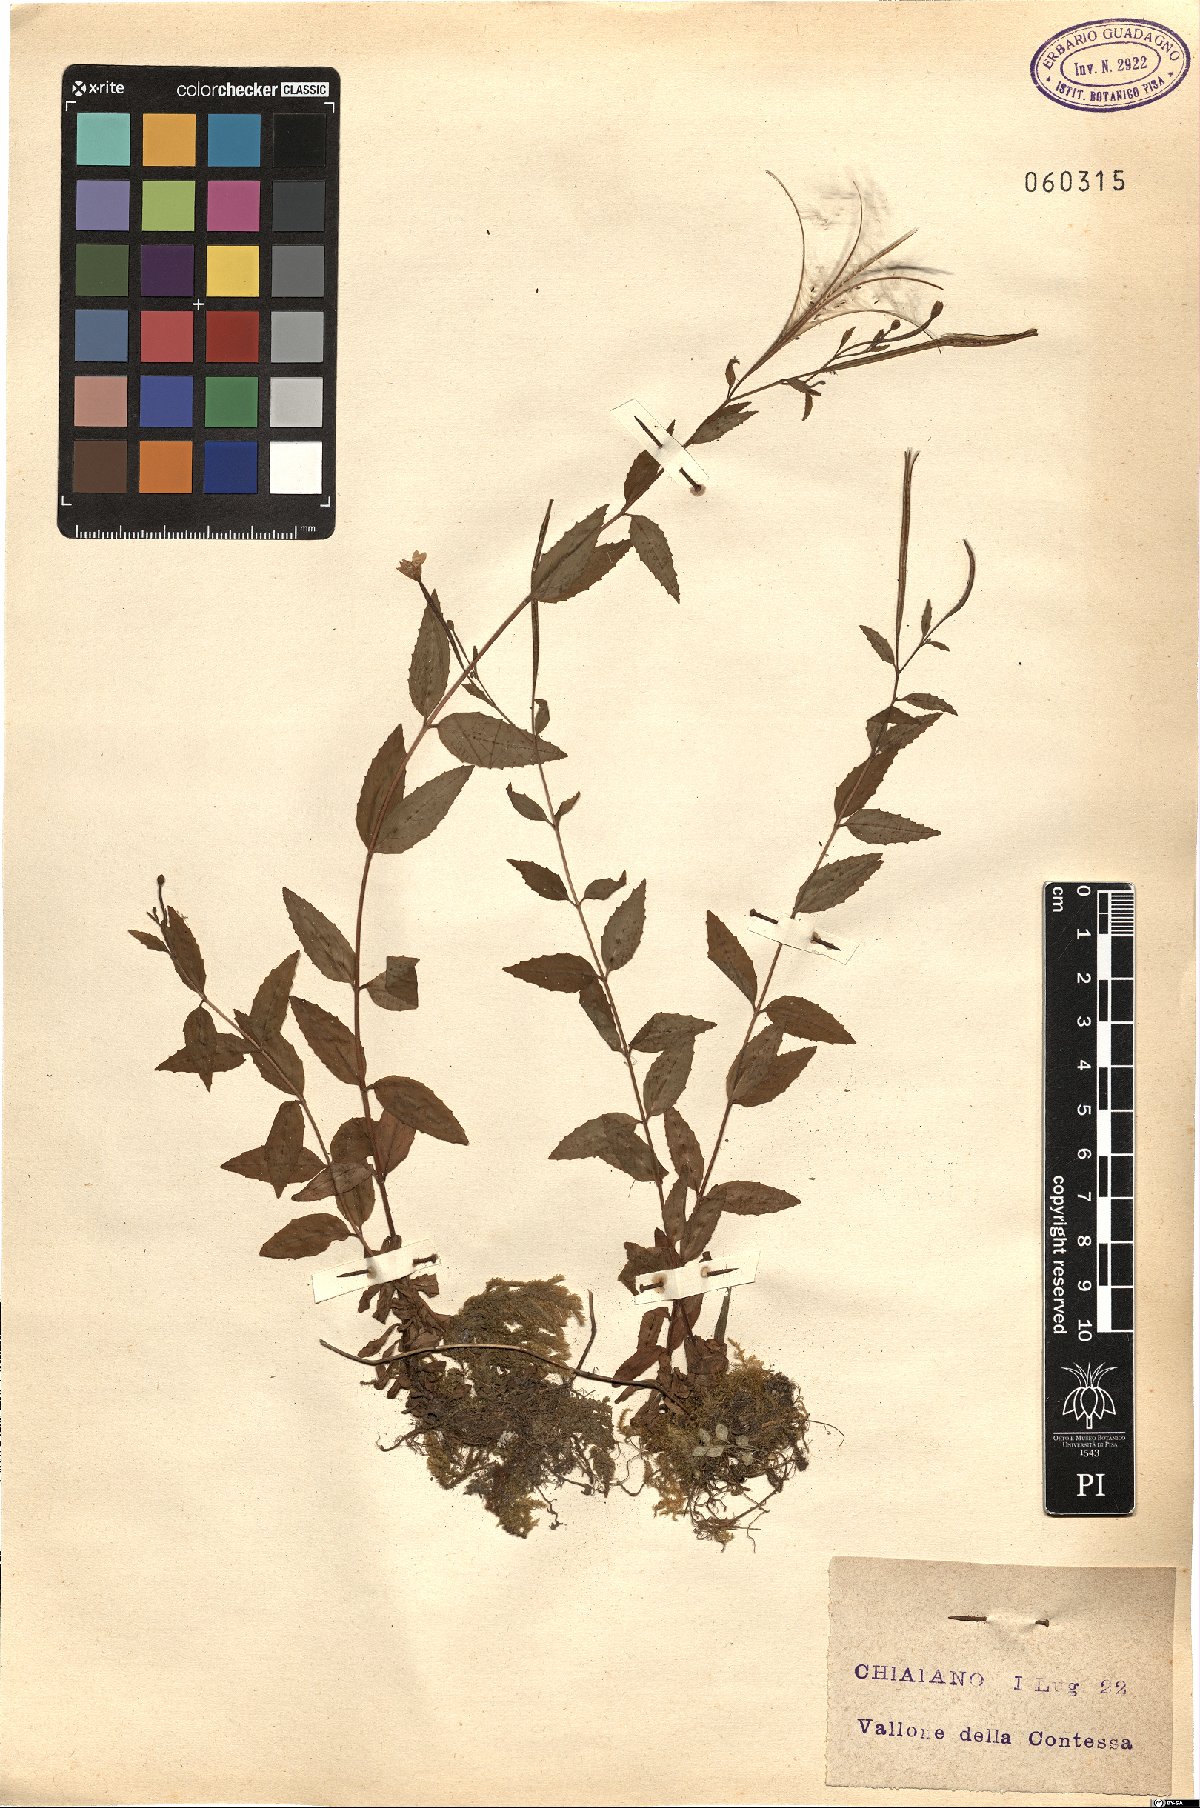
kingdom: Plantae
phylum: Tracheophyta
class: Magnoliopsida
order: Myrtales
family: Onagraceae
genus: Epilobium
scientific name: Epilobium
